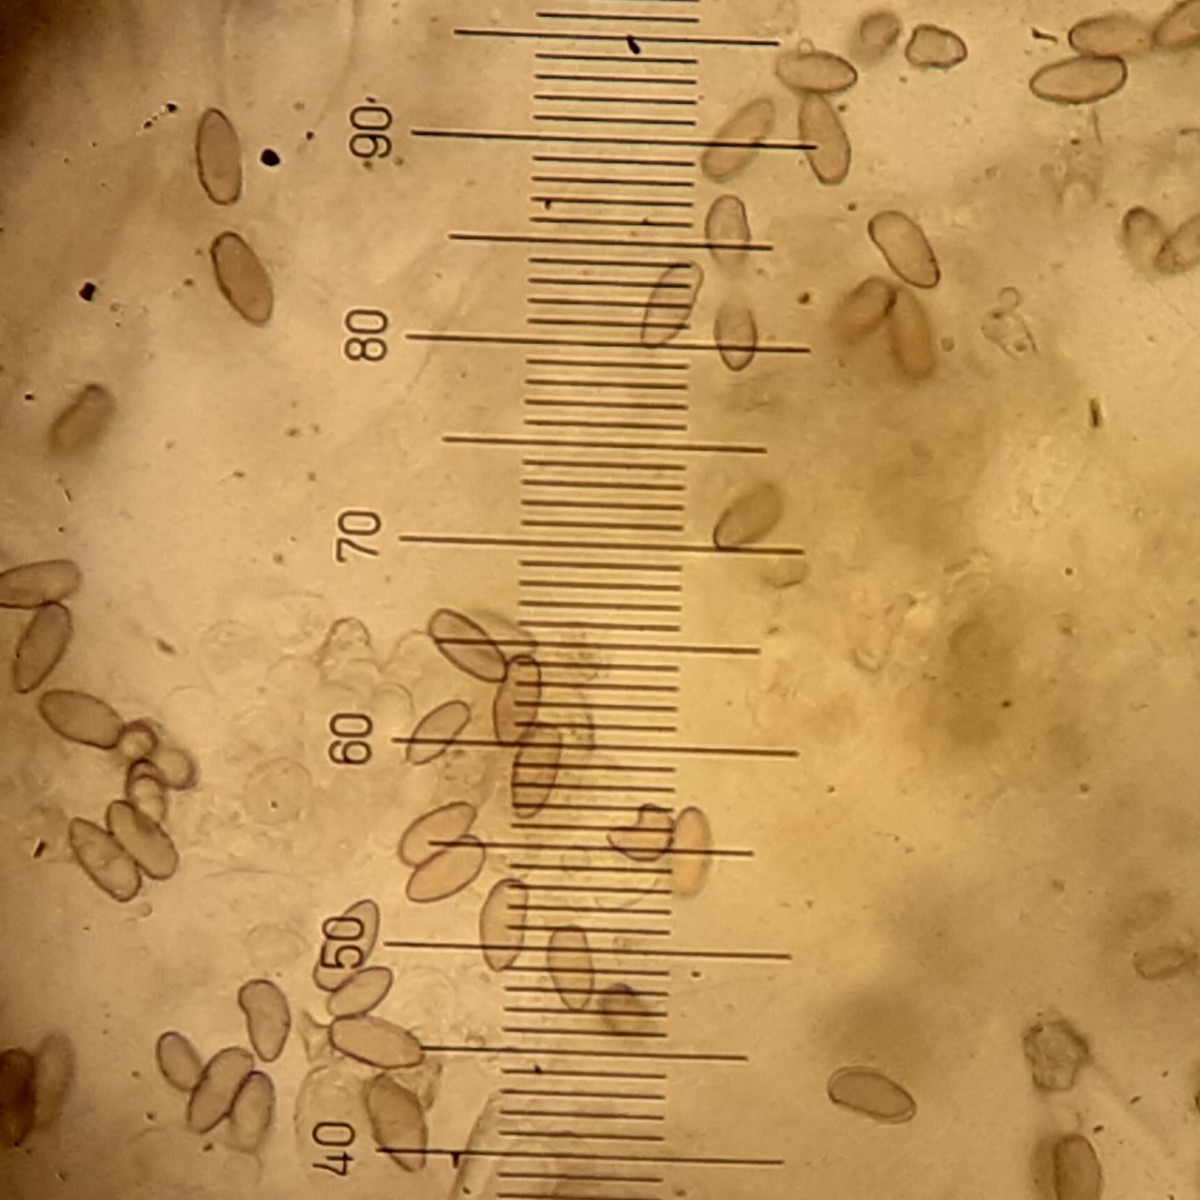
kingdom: Fungi
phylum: Basidiomycota
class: Agaricomycetes
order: Agaricales
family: Inocybaceae
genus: Inocybe
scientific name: Inocybe lacera
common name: laset trævlhat
